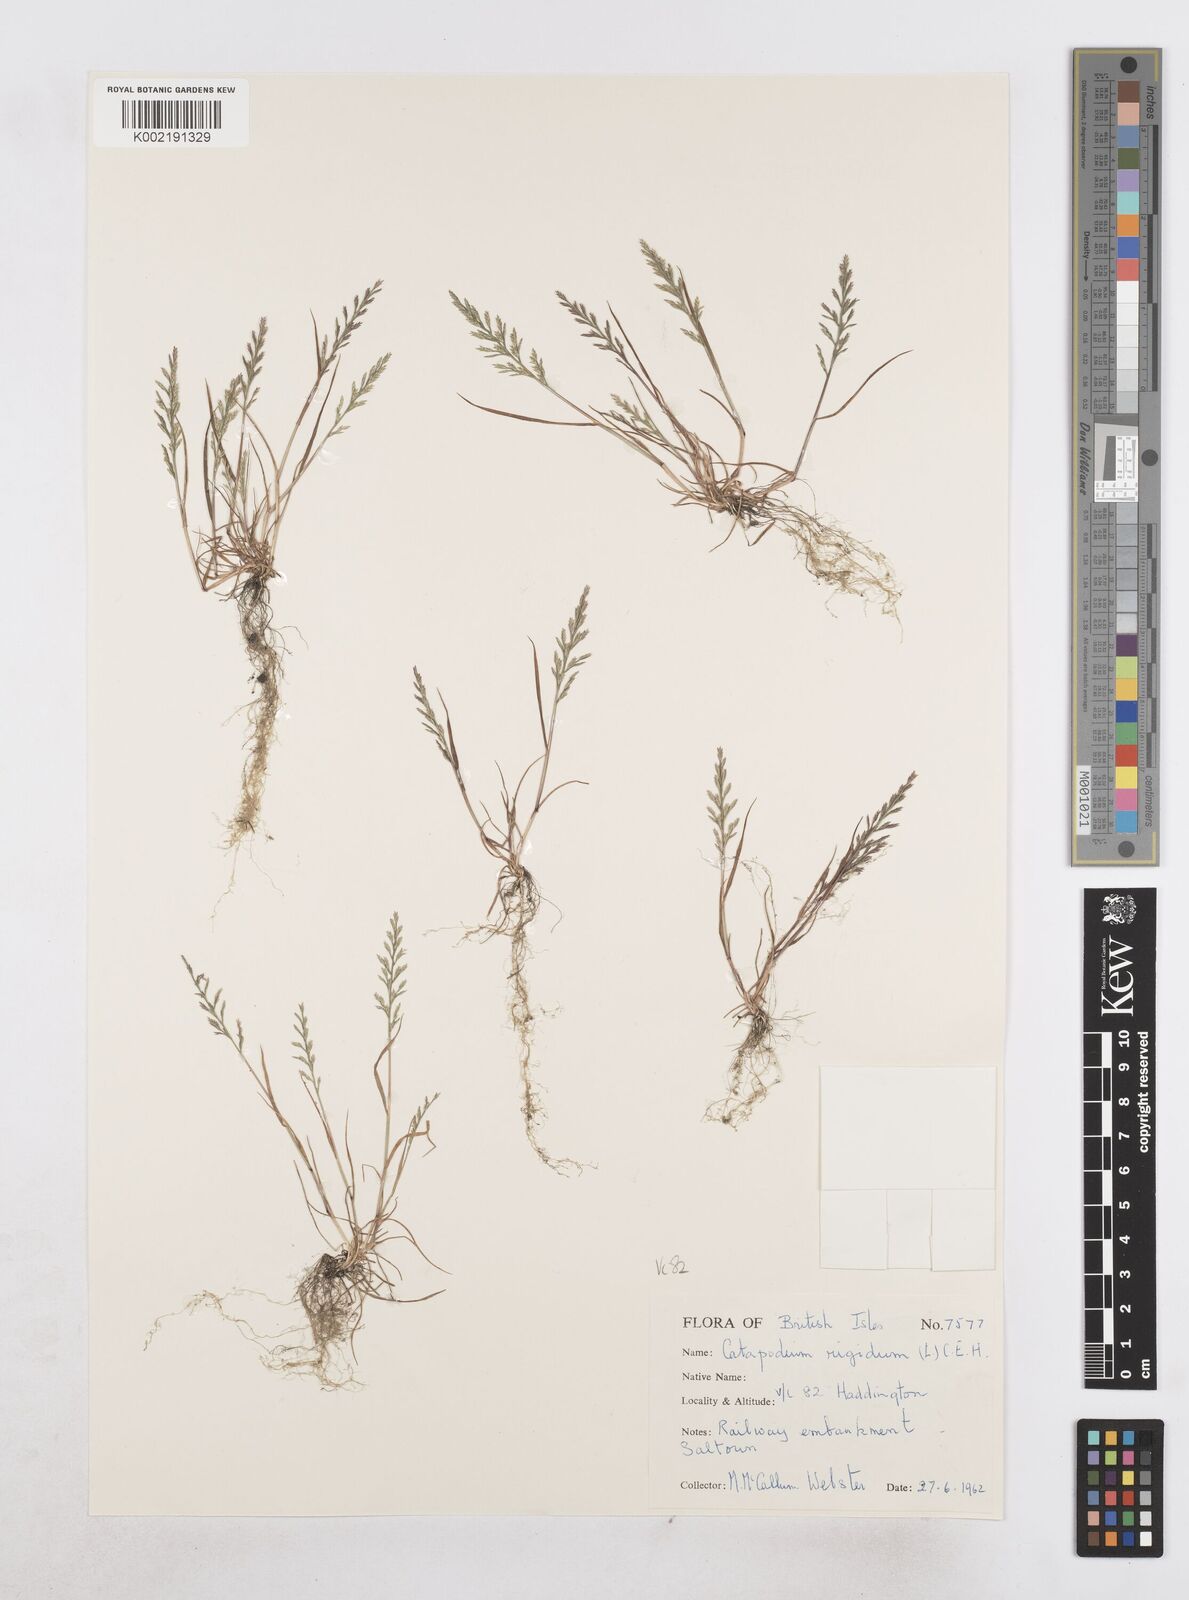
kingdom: Plantae
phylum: Tracheophyta
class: Liliopsida
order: Poales
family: Poaceae
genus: Catapodium
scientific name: Catapodium rigidum
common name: Fern-grass
